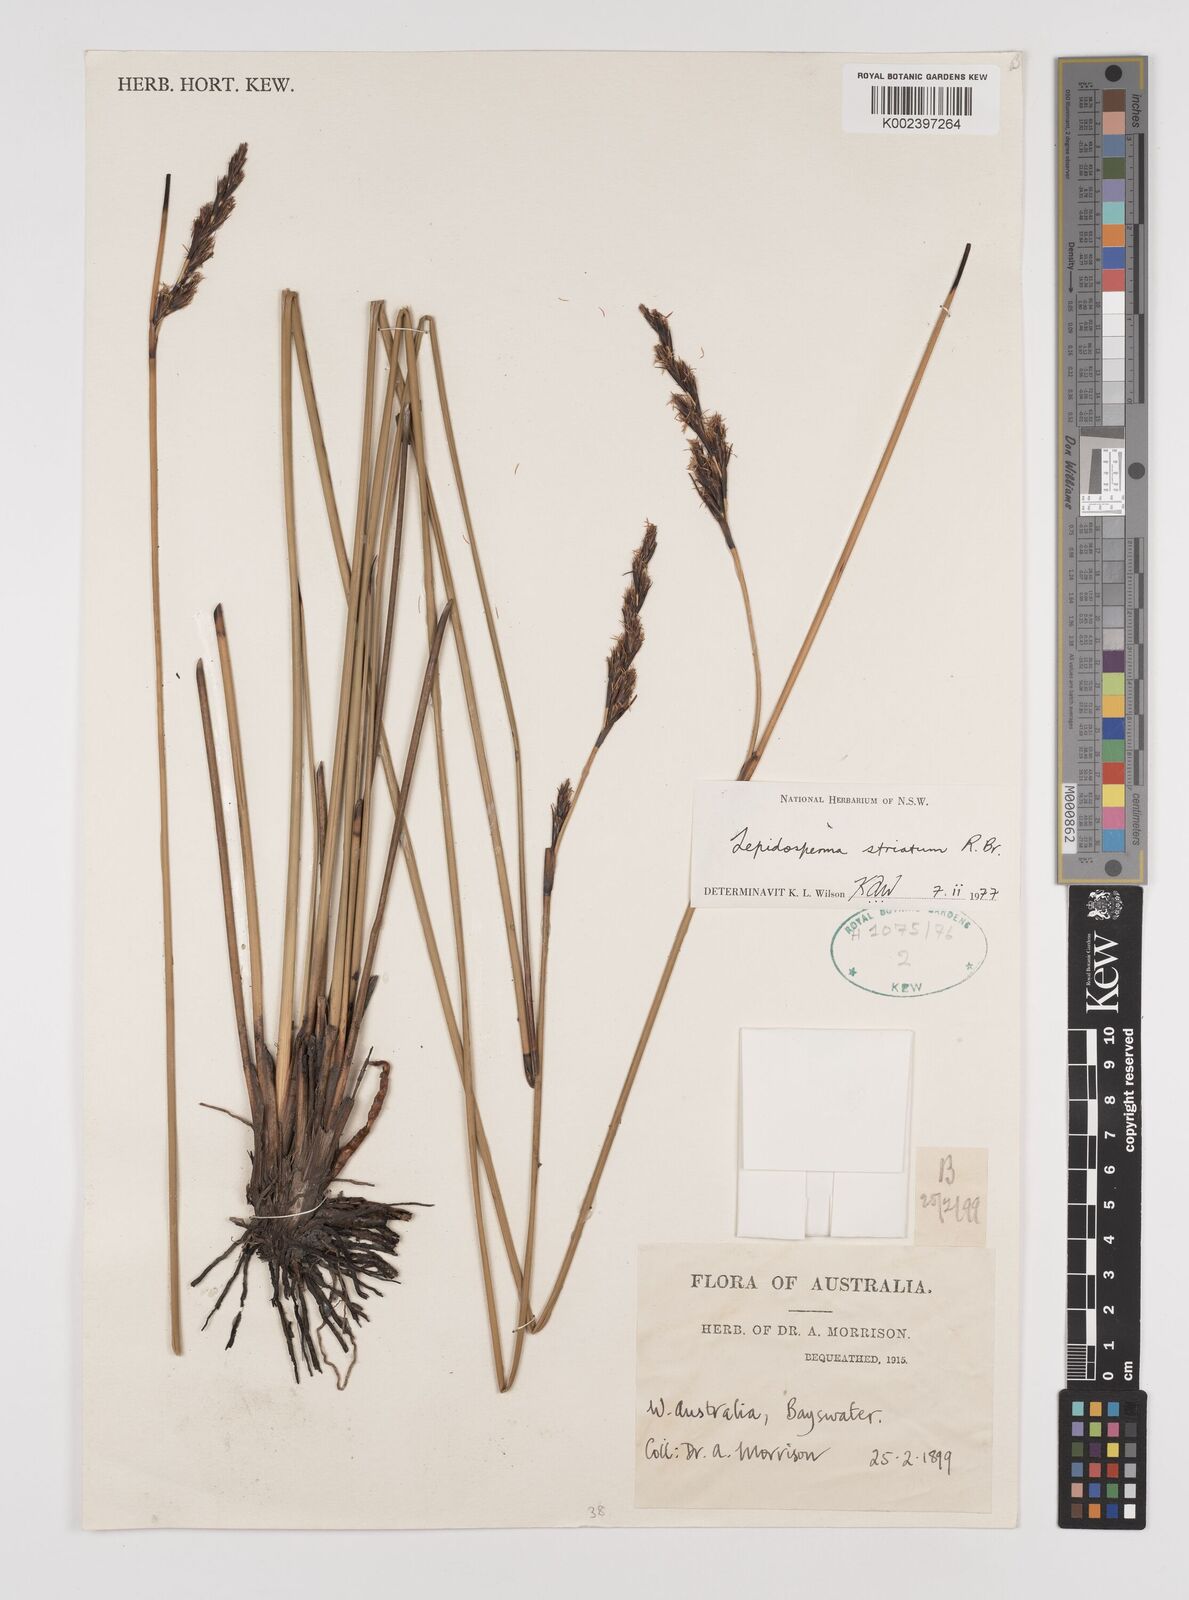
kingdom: Plantae
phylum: Tracheophyta
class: Liliopsida
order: Poales
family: Cyperaceae
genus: Lepidosperma
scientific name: Lepidosperma striatum
